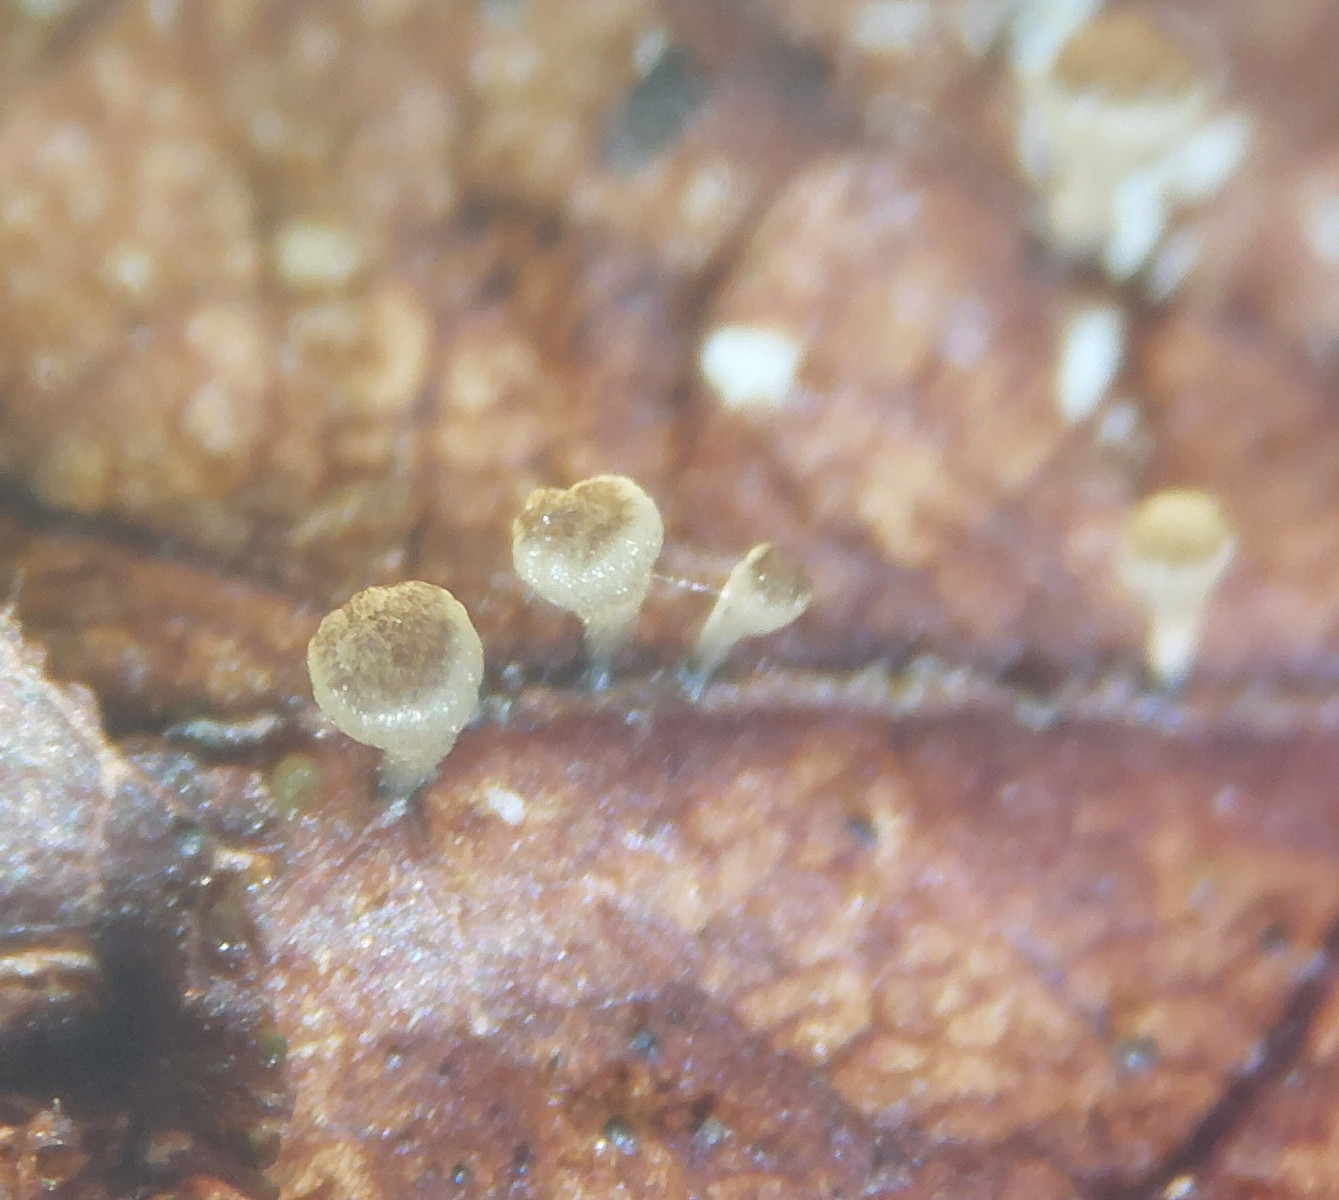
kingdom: Fungi
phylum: Ascomycota
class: Leotiomycetes
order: Helotiales
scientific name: Helotiales
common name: stilkskiveordenen
